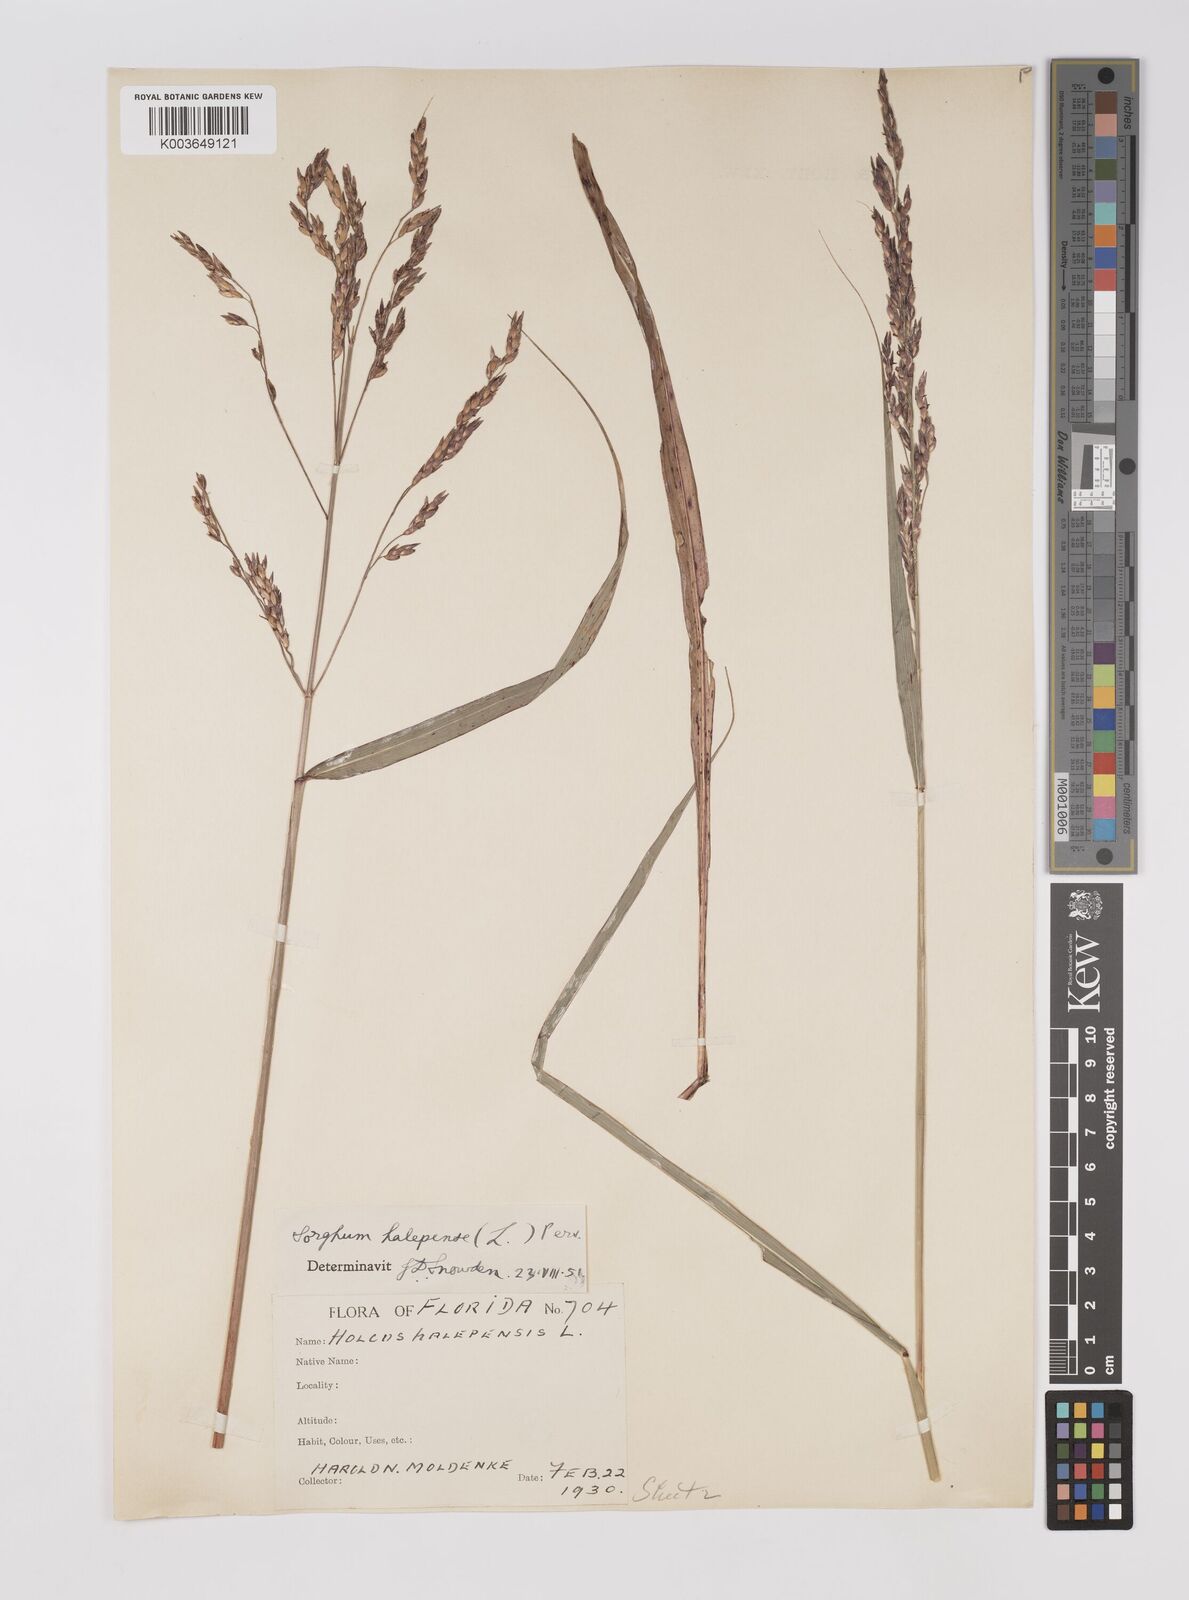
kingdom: Plantae
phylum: Tracheophyta
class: Liliopsida
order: Poales
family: Poaceae
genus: Sorghum
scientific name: Sorghum halepense
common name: Johnson-grass
